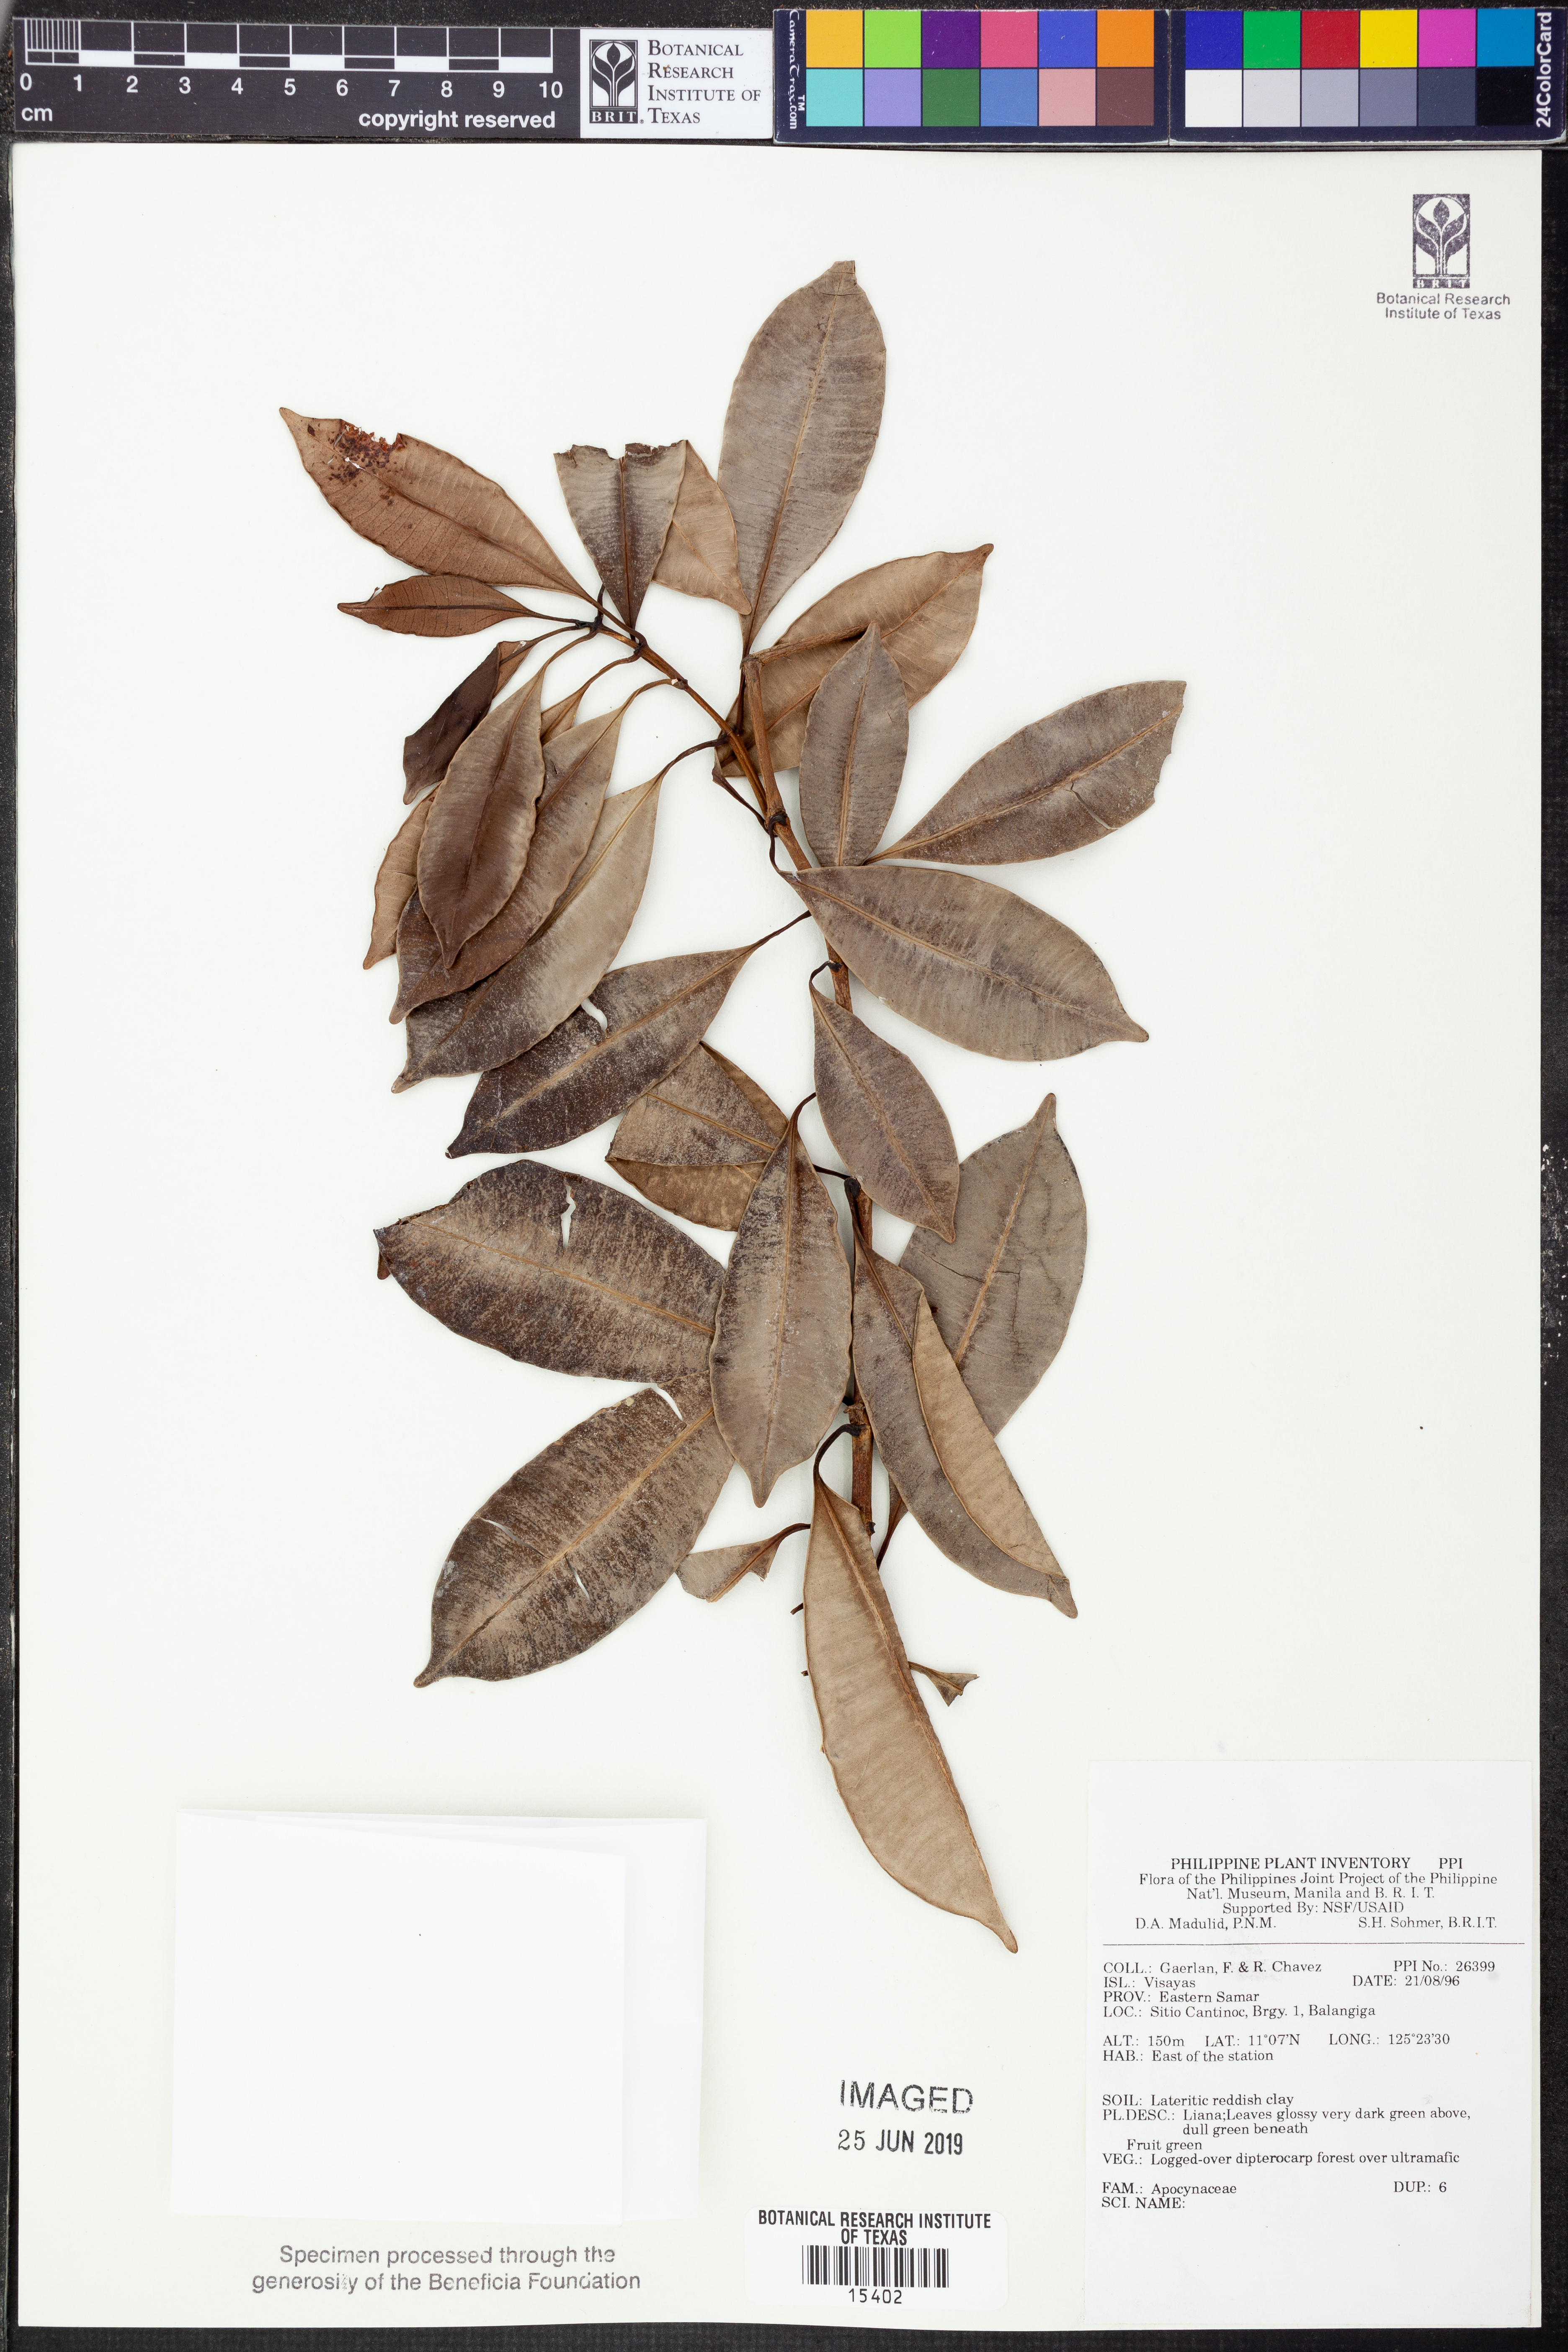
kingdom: Plantae
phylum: Tracheophyta
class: Magnoliopsida
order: Gentianales
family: Apocynaceae
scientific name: Apocynaceae
